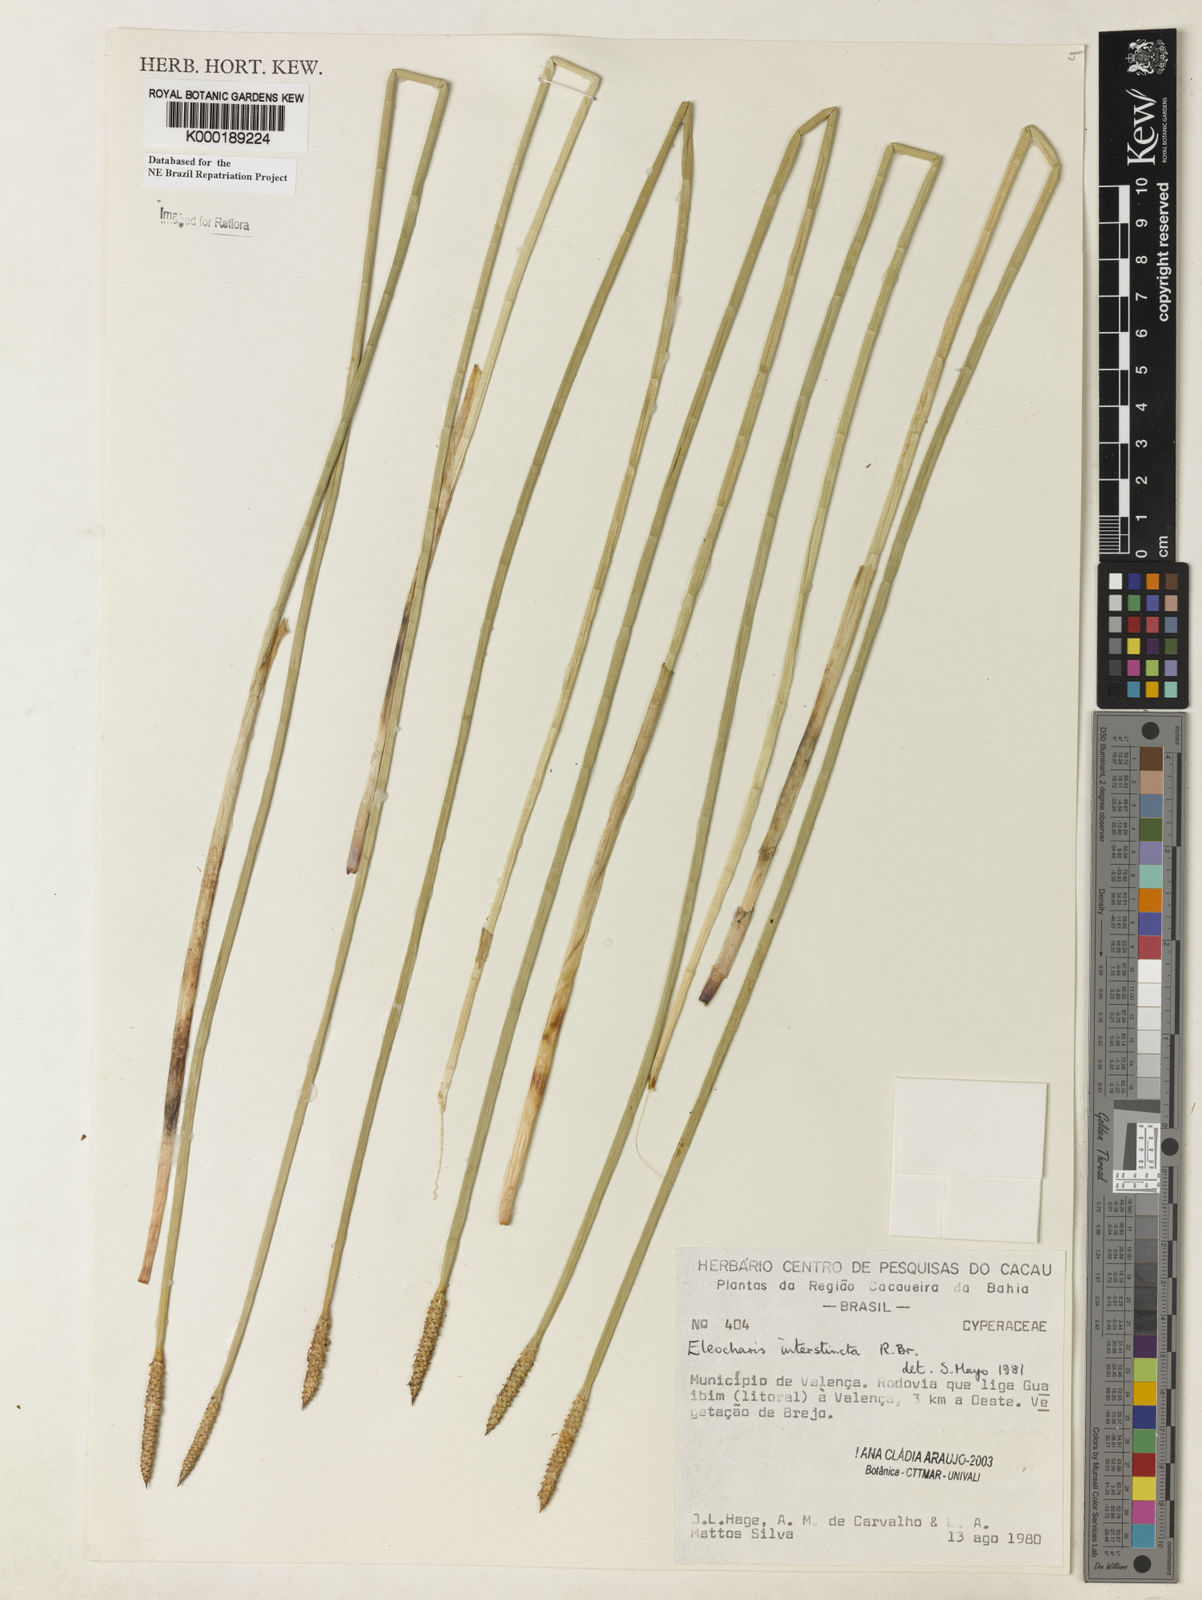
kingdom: Plantae
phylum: Tracheophyta
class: Liliopsida
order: Poales
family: Cyperaceae
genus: Eleocharis
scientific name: Eleocharis interstincta
